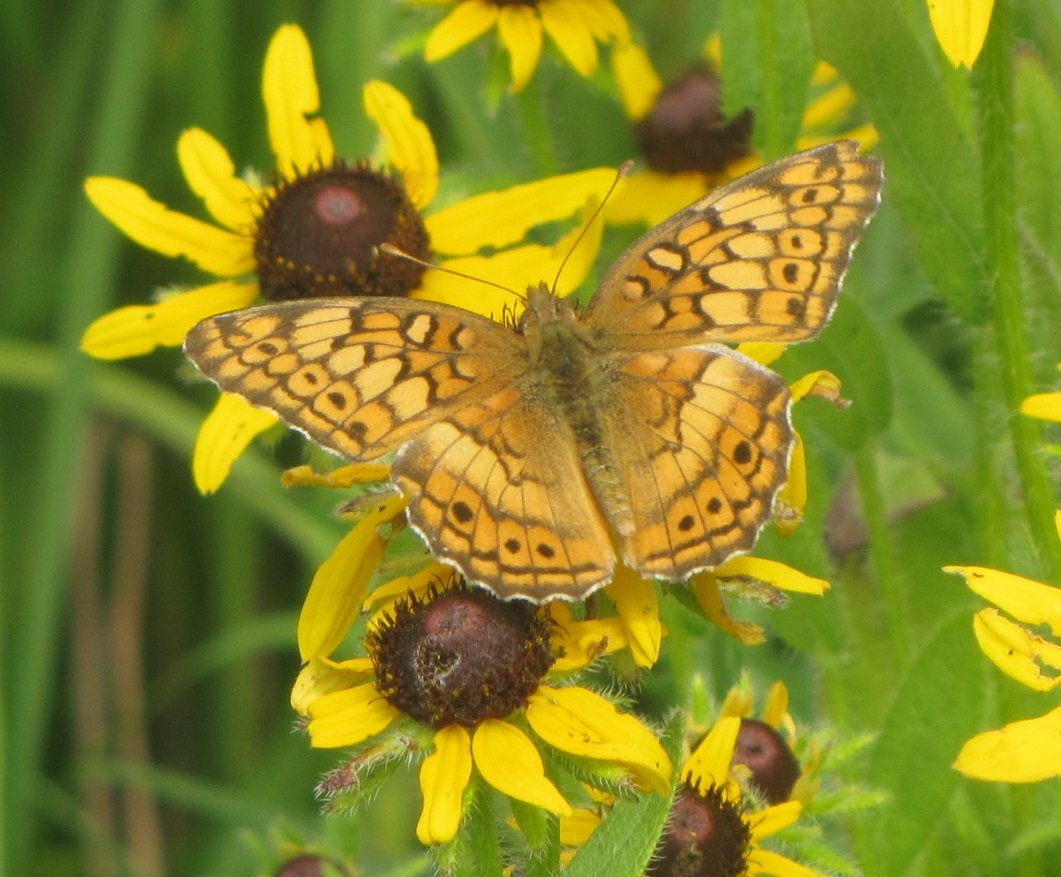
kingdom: Animalia
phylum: Arthropoda
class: Insecta
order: Lepidoptera
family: Nymphalidae
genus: Euptoieta
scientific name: Euptoieta claudia
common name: Variegated Fritillary
